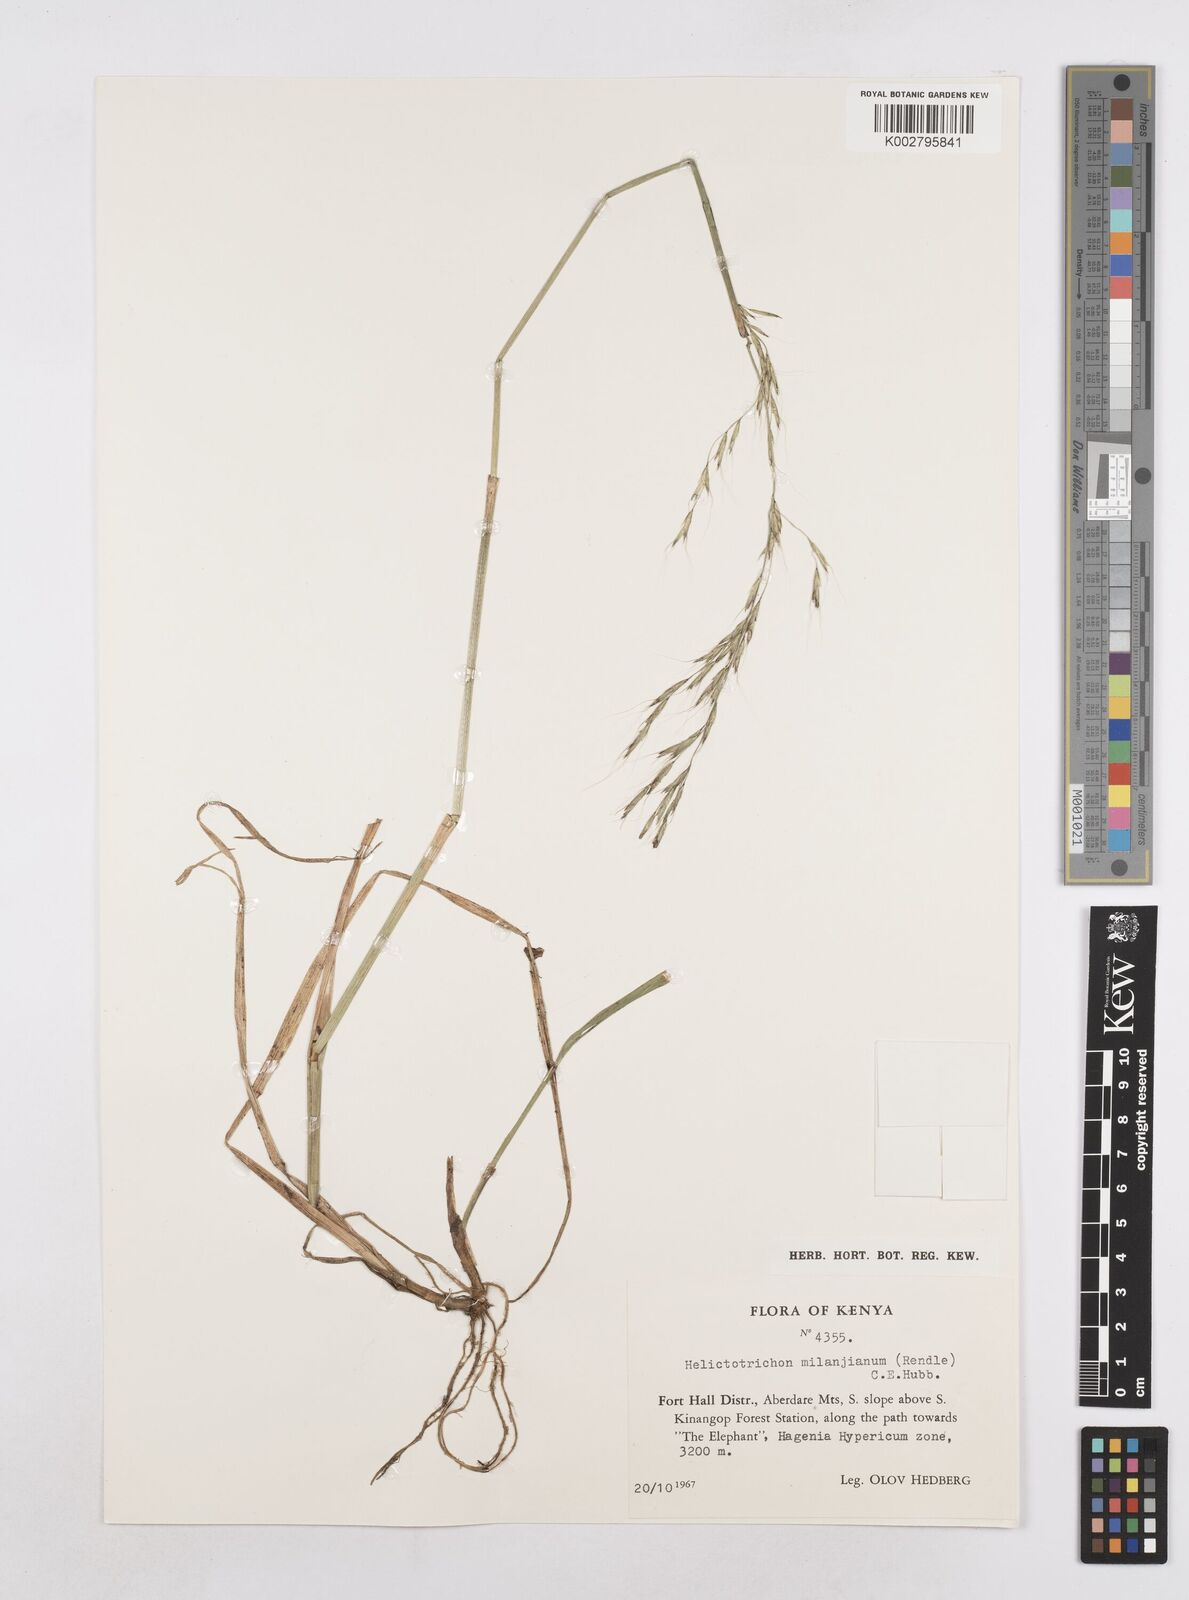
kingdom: Plantae
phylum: Tracheophyta
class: Liliopsida
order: Poales
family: Poaceae
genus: Trisetopsis
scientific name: Trisetopsis milanjiana
